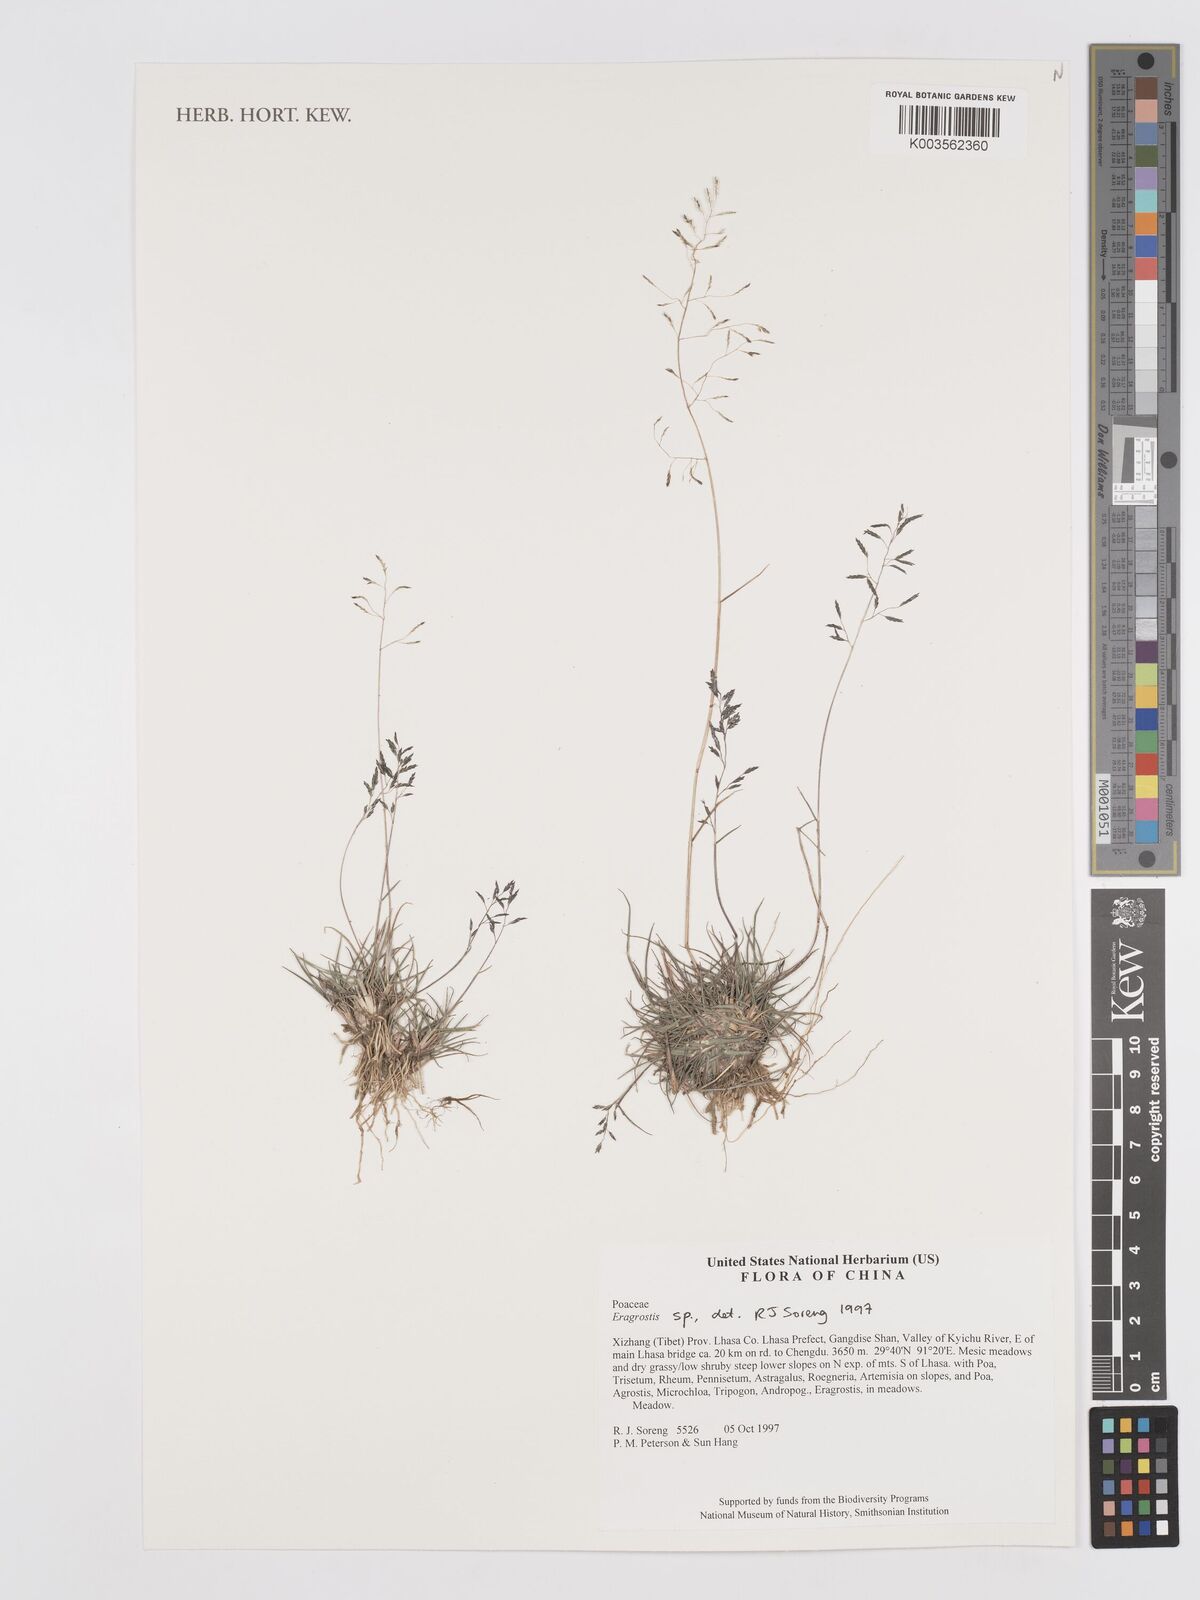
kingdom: Plantae
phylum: Tracheophyta
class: Liliopsida
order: Poales
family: Poaceae
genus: Eragrostis
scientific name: Eragrostis
